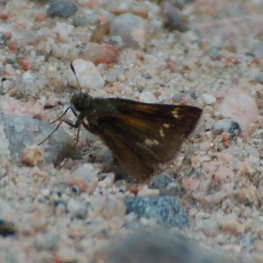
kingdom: Animalia
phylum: Arthropoda
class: Insecta
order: Lepidoptera
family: Hesperiidae
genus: Polites
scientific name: Polites themistocles
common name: Tawny-edged Skipper
